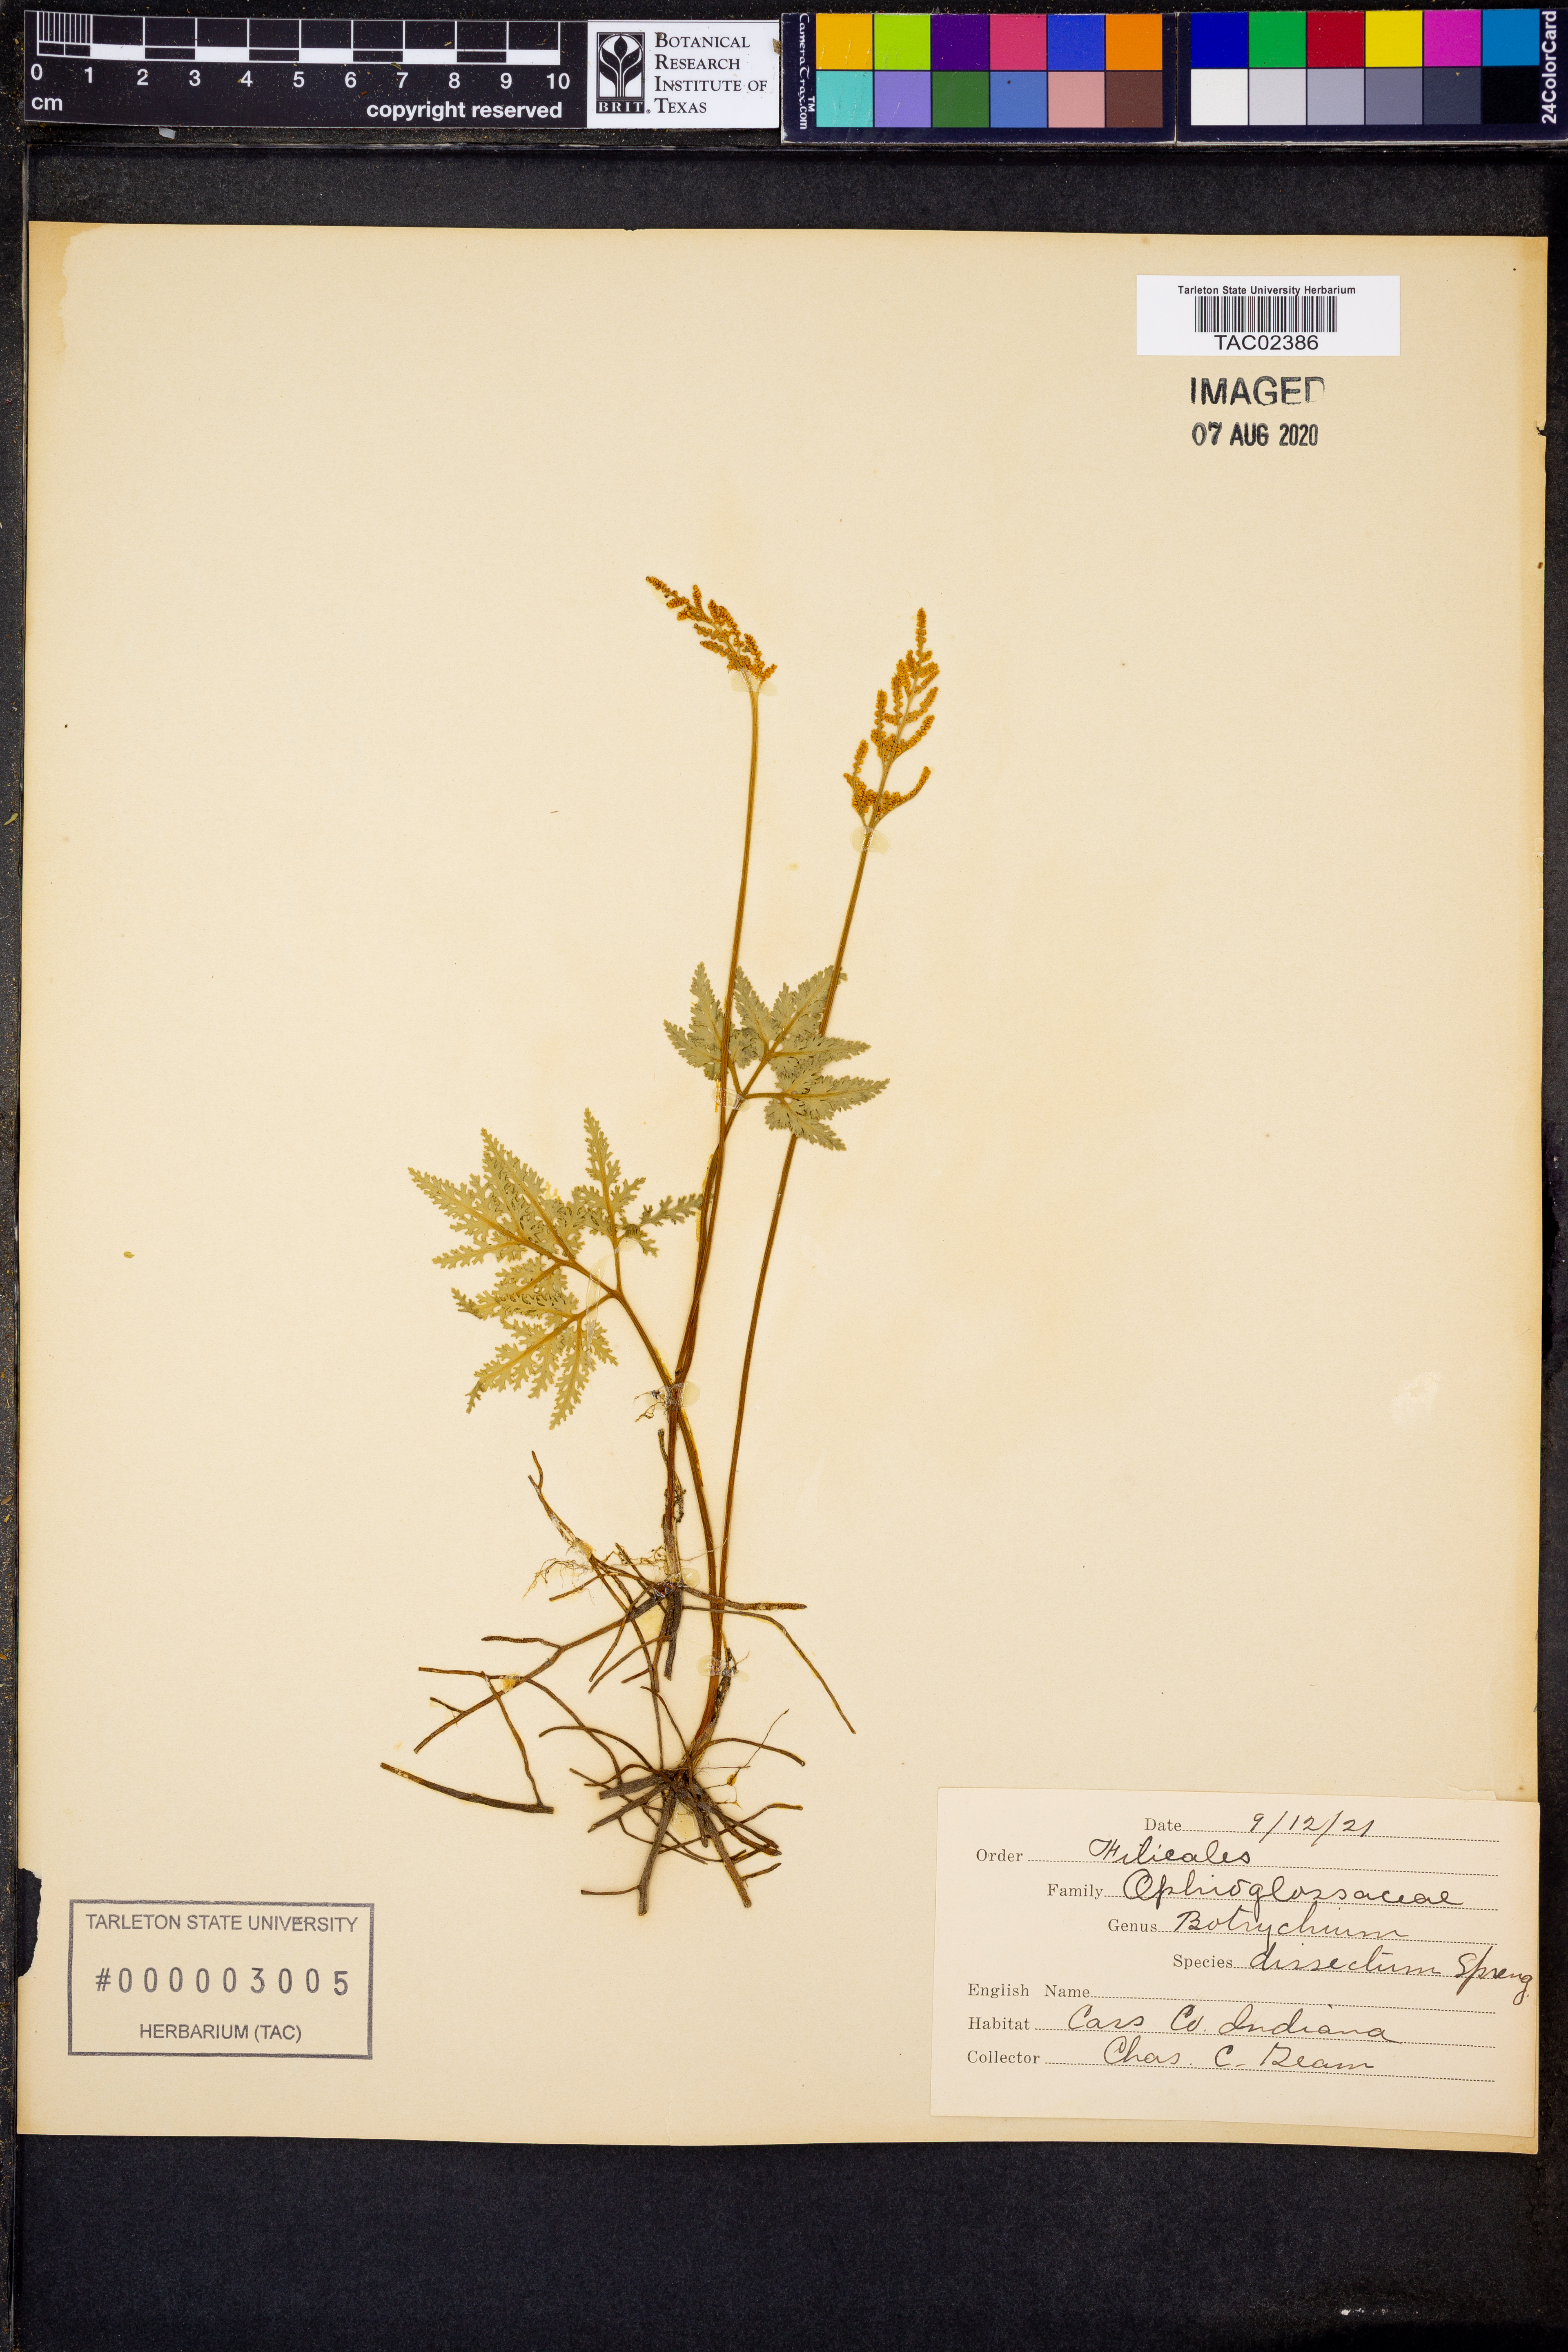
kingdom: Plantae
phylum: Tracheophyta
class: Polypodiopsida
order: Ophioglossales
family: Ophioglossaceae
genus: Sceptridium
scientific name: Sceptridium dissectum
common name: Cut-leaved grapefern
